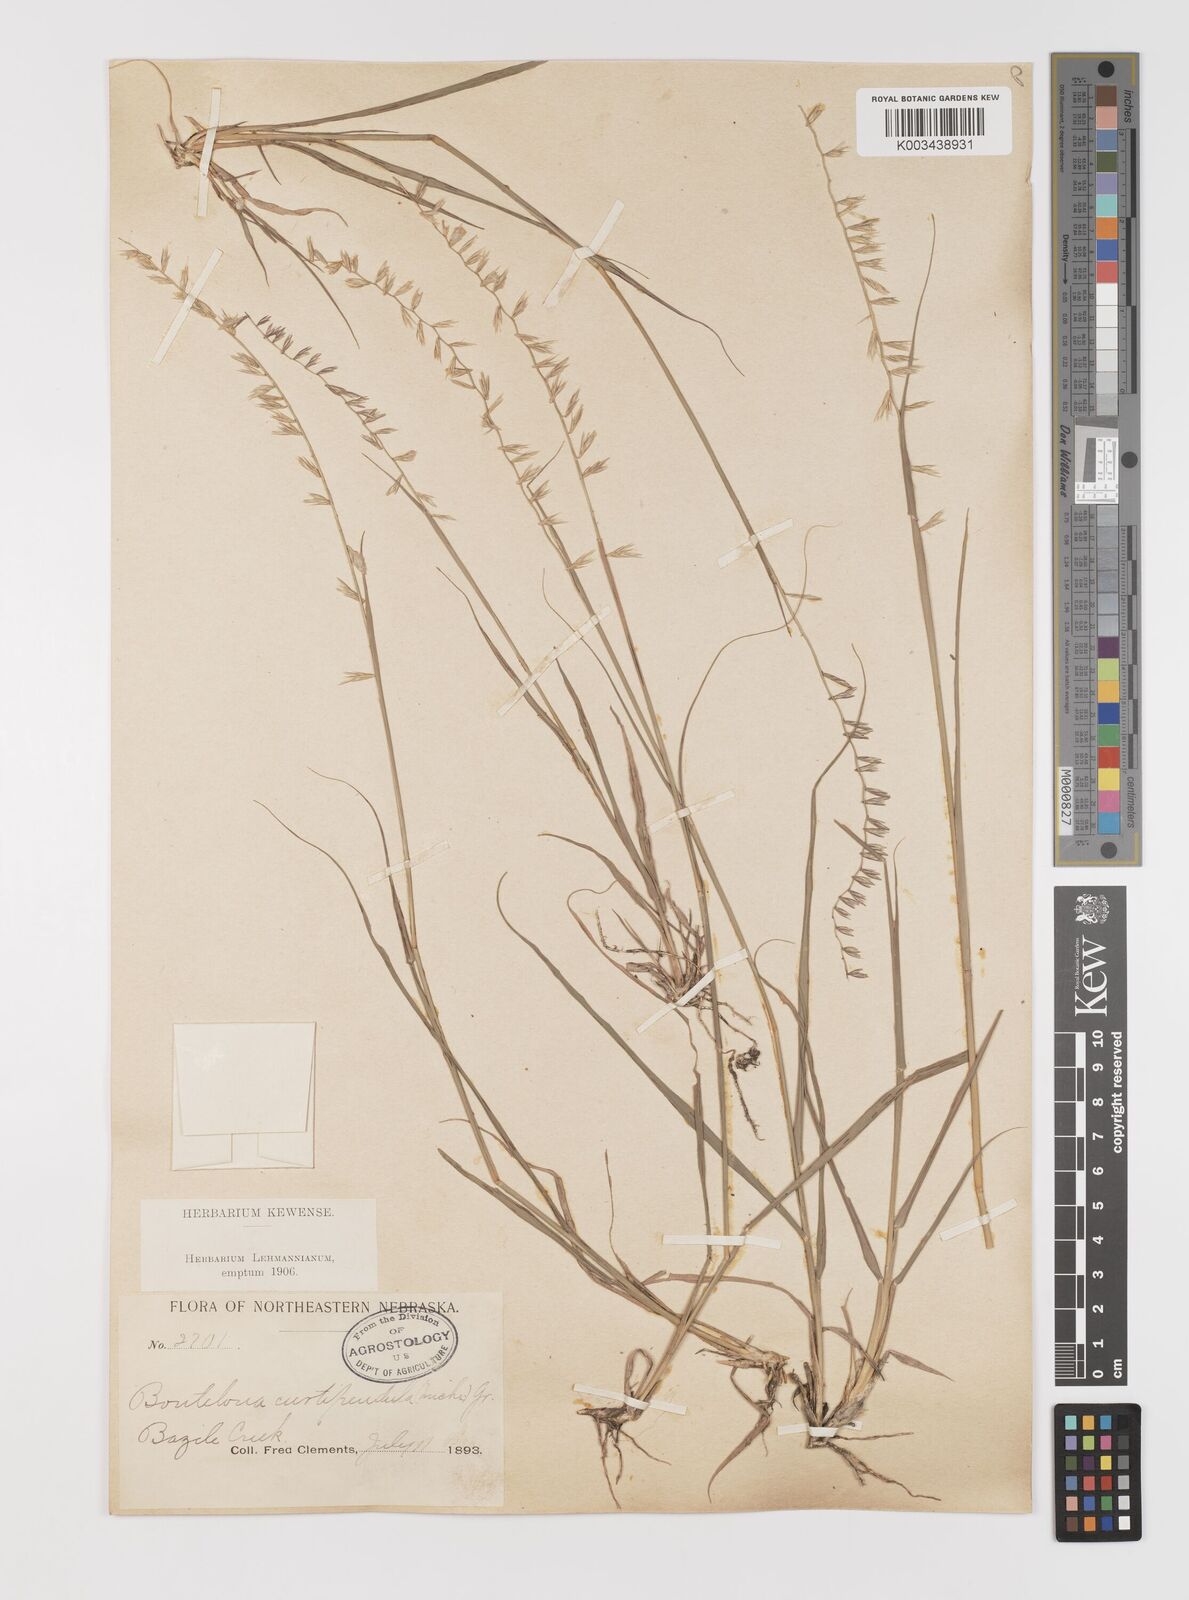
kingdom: Plantae
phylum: Tracheophyta
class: Liliopsida
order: Poales
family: Poaceae
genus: Bouteloua
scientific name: Bouteloua curtipendula
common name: Side-oats grama
